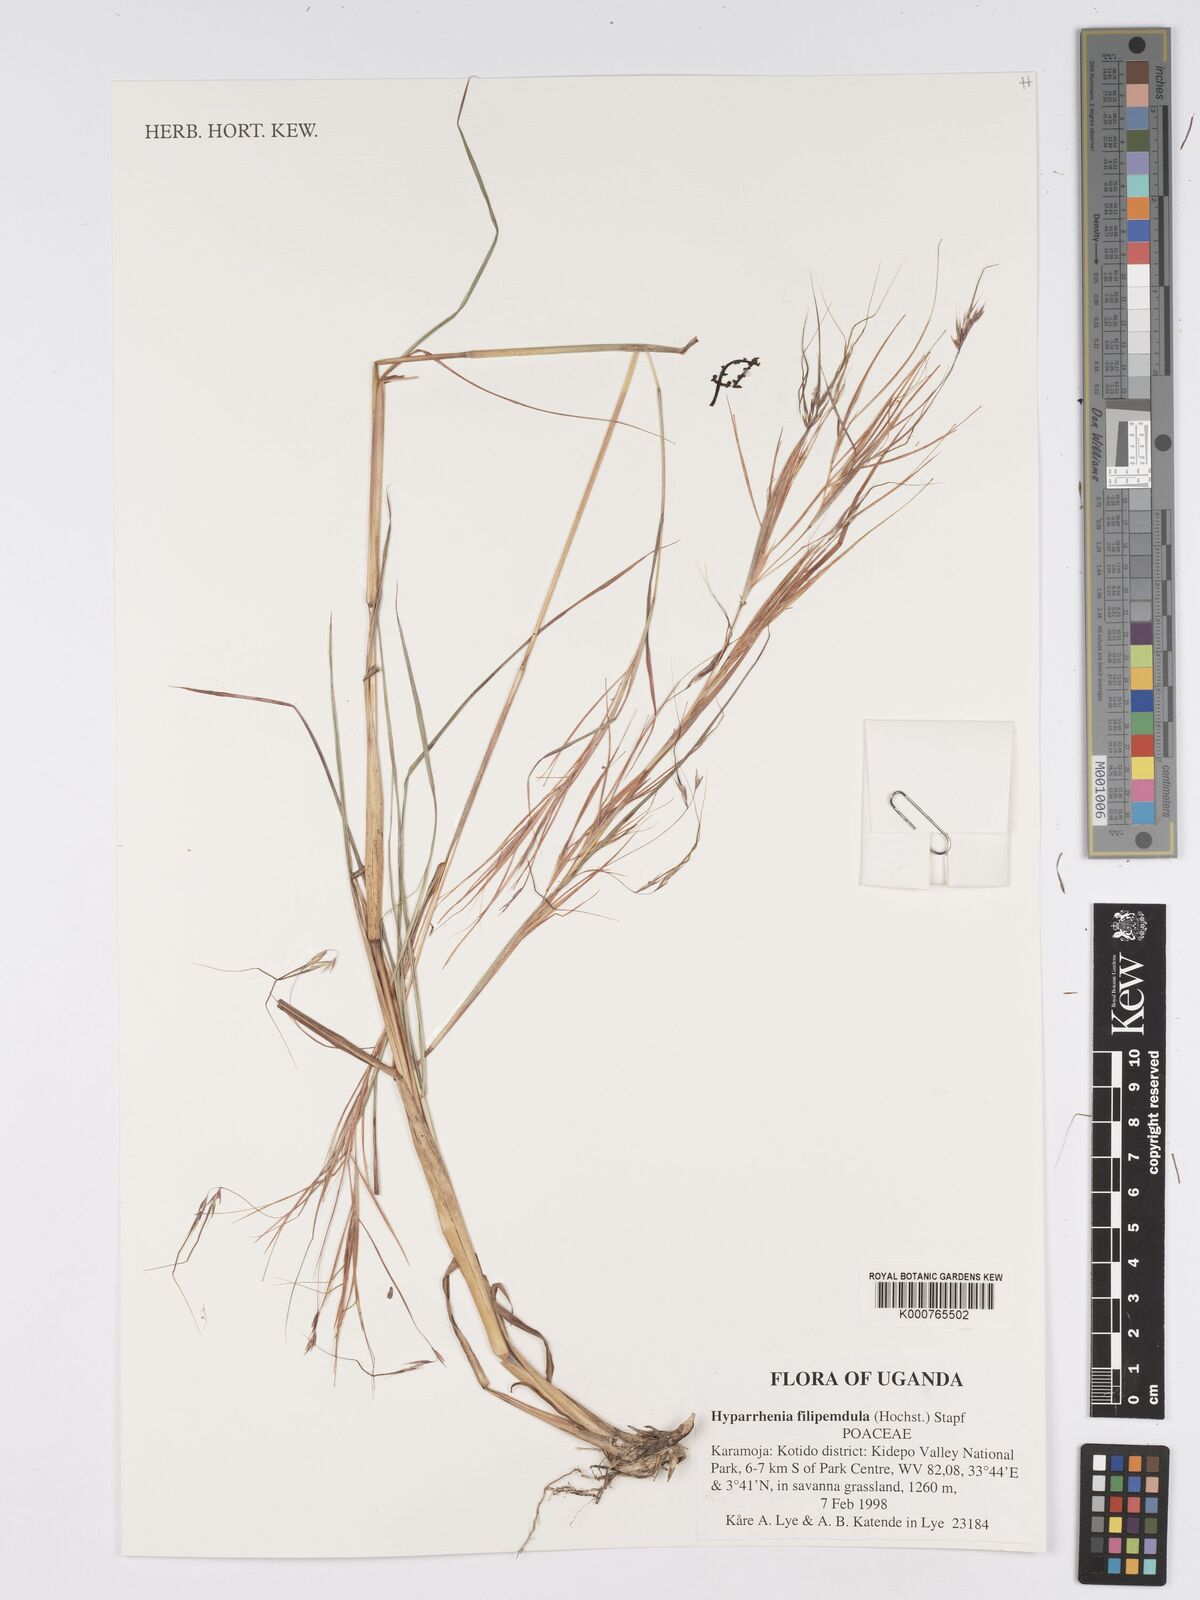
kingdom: Plantae
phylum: Tracheophyta
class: Liliopsida
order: Poales
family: Poaceae
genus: Hyparrhenia
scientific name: Hyparrhenia filipendula
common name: Tambookie grass
